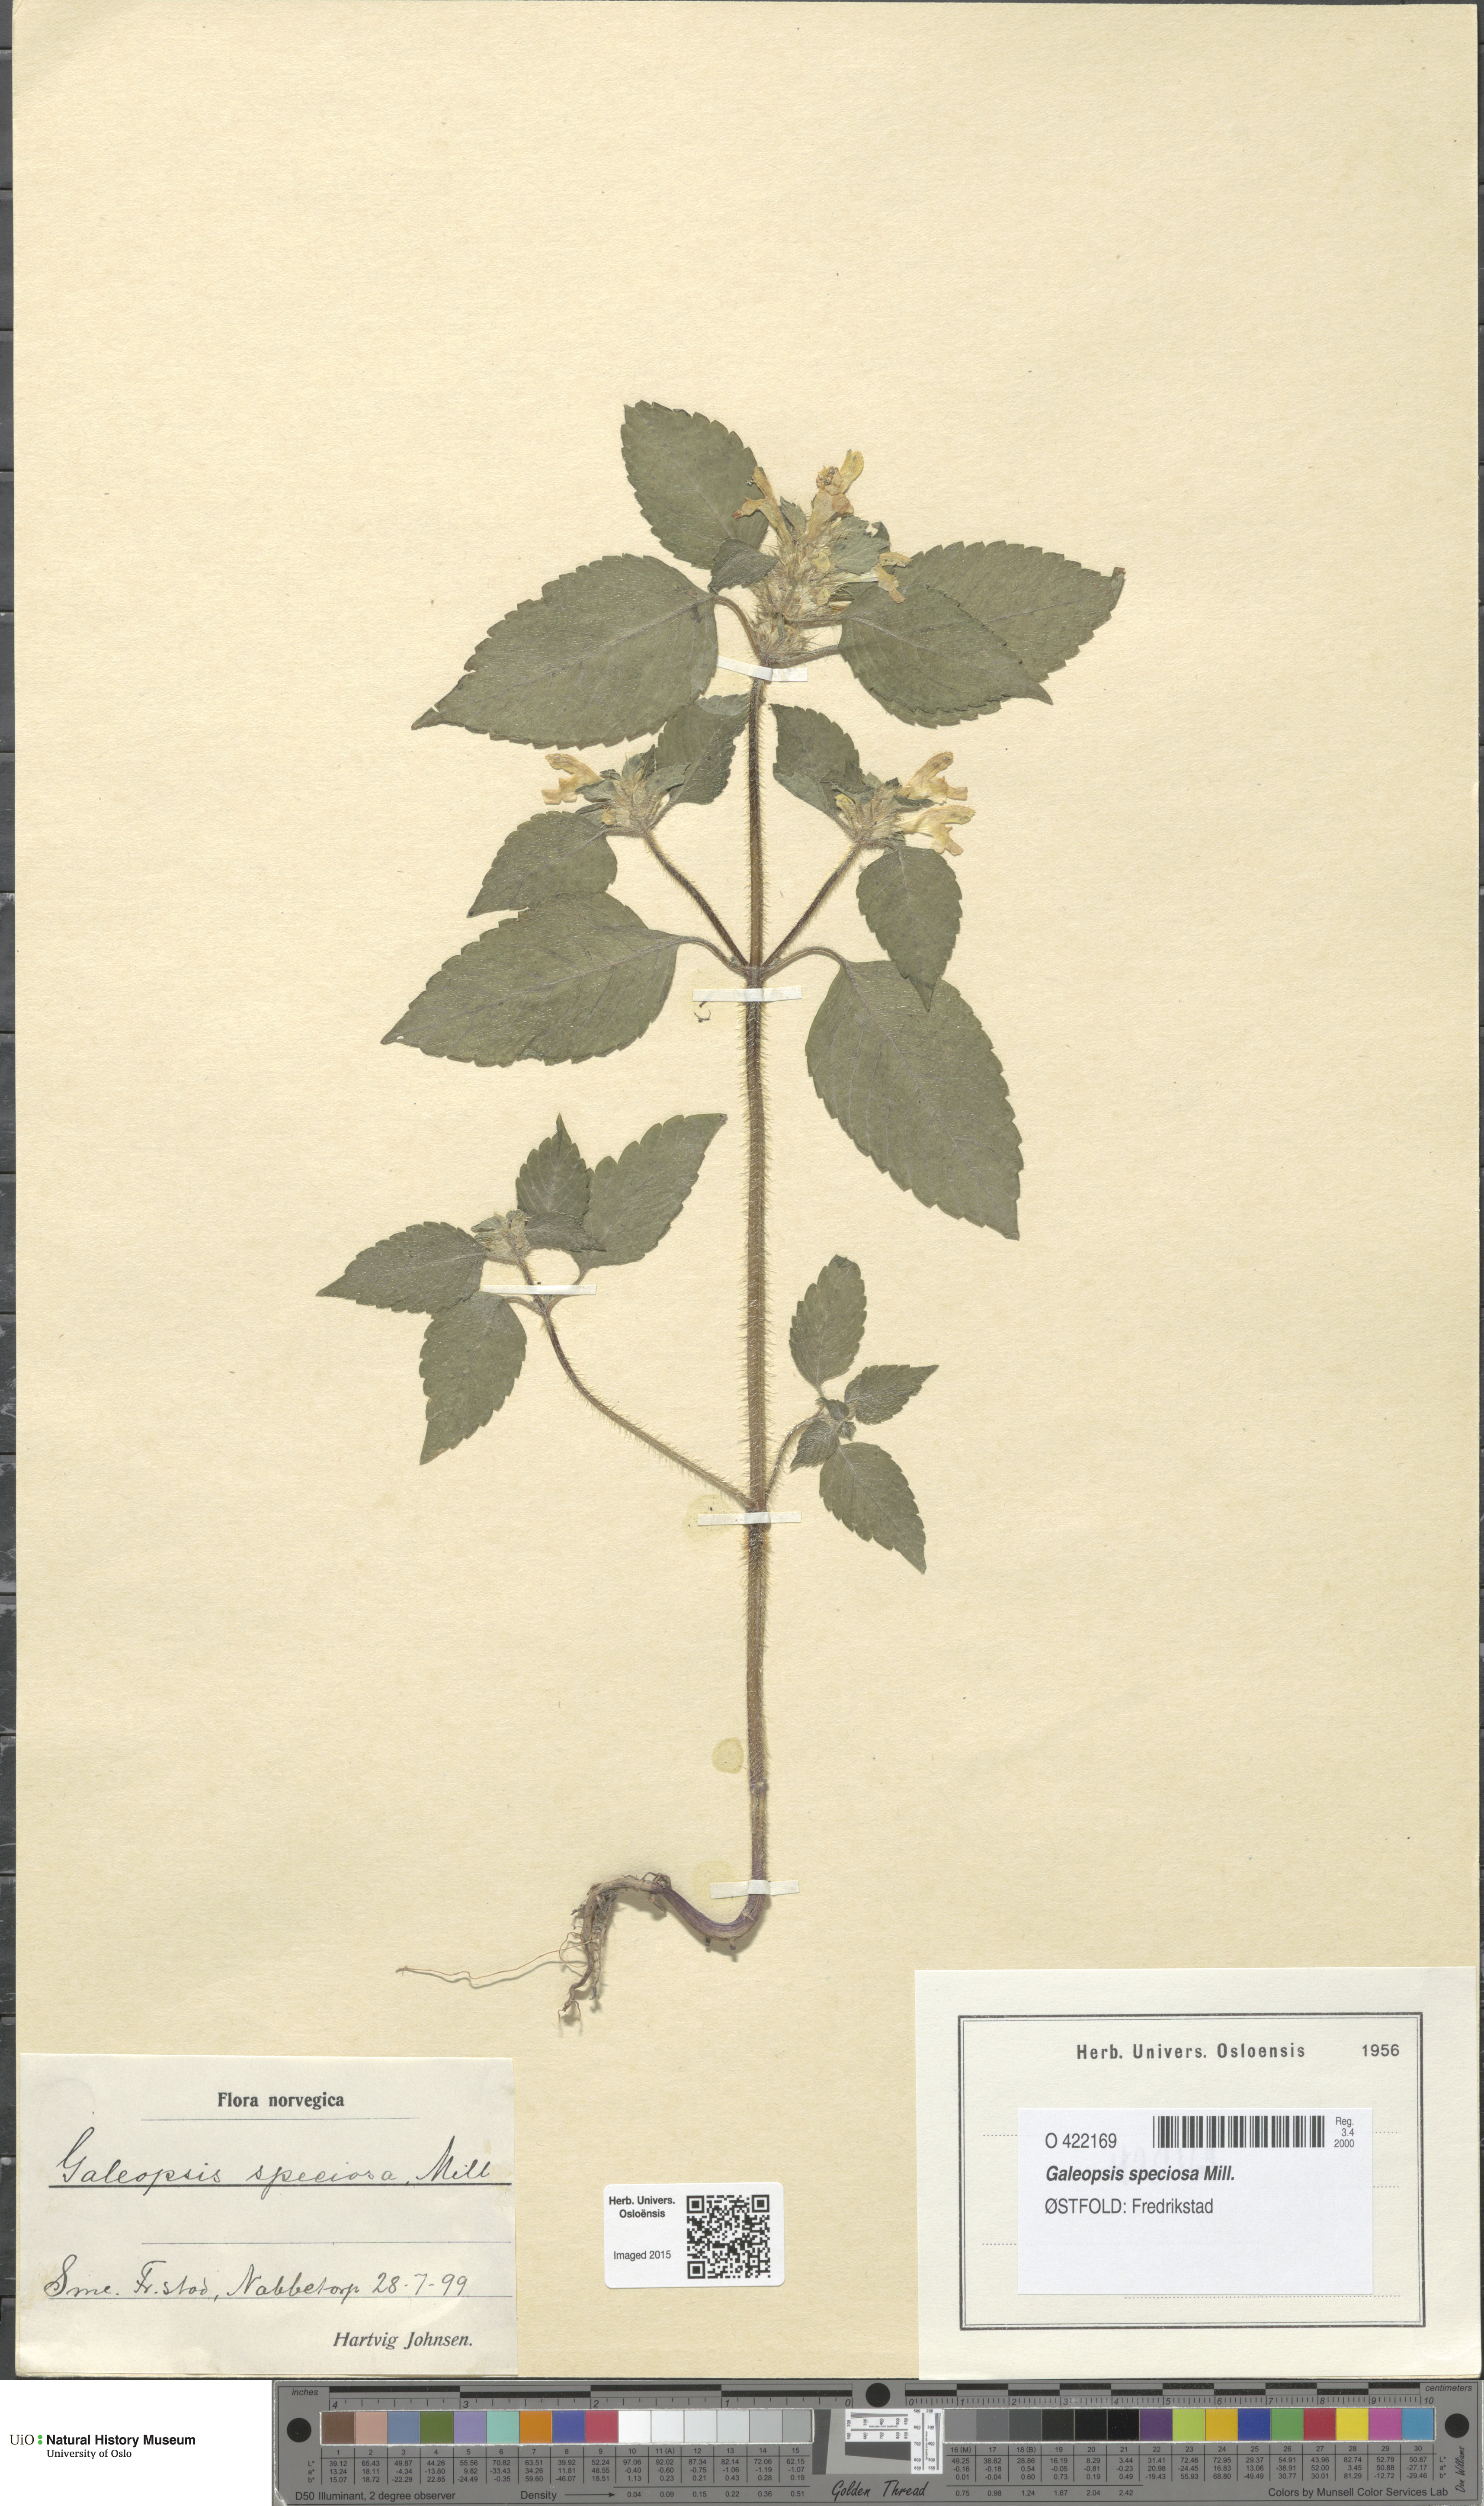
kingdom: Plantae
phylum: Tracheophyta
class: Magnoliopsida
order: Lamiales
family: Lamiaceae
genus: Galeopsis
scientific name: Galeopsis speciosa
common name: Large-flowered hemp-nettle
